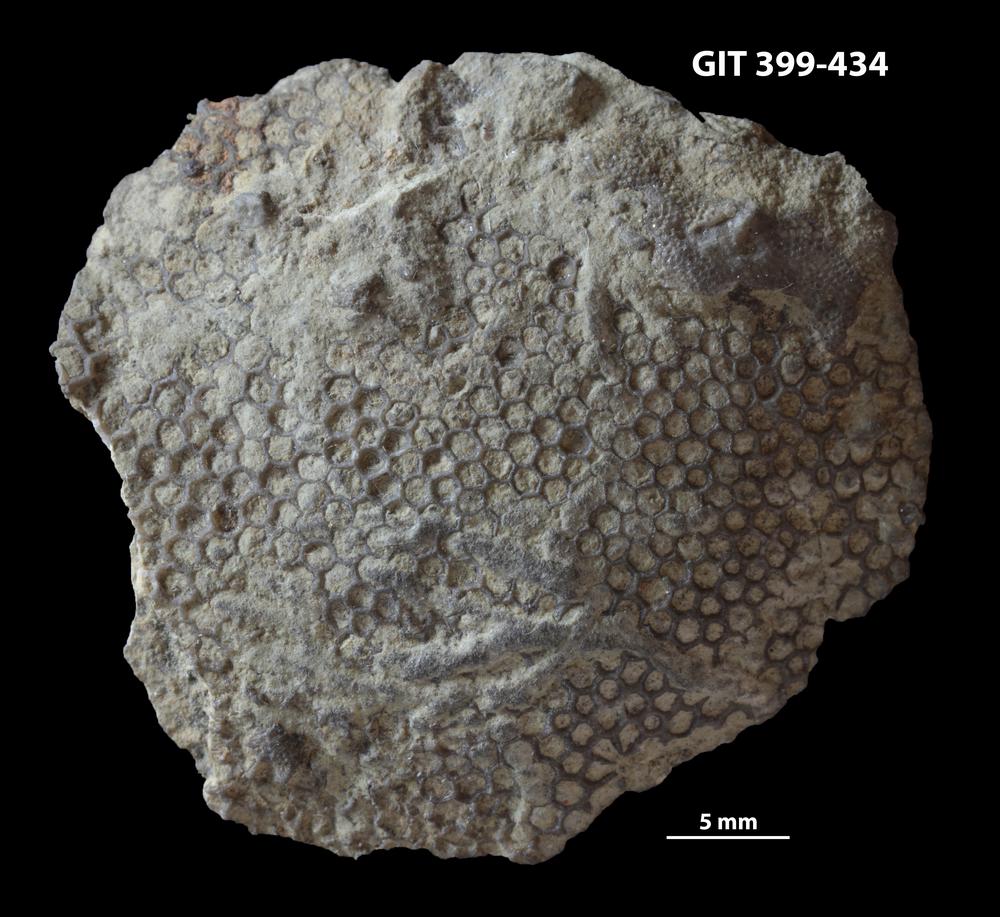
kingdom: Plantae
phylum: Chlorophyta
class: Ulvophyceae
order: Cyclocrinales
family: Cyclocrinaceae
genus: Mastopora
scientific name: Mastopora concava
